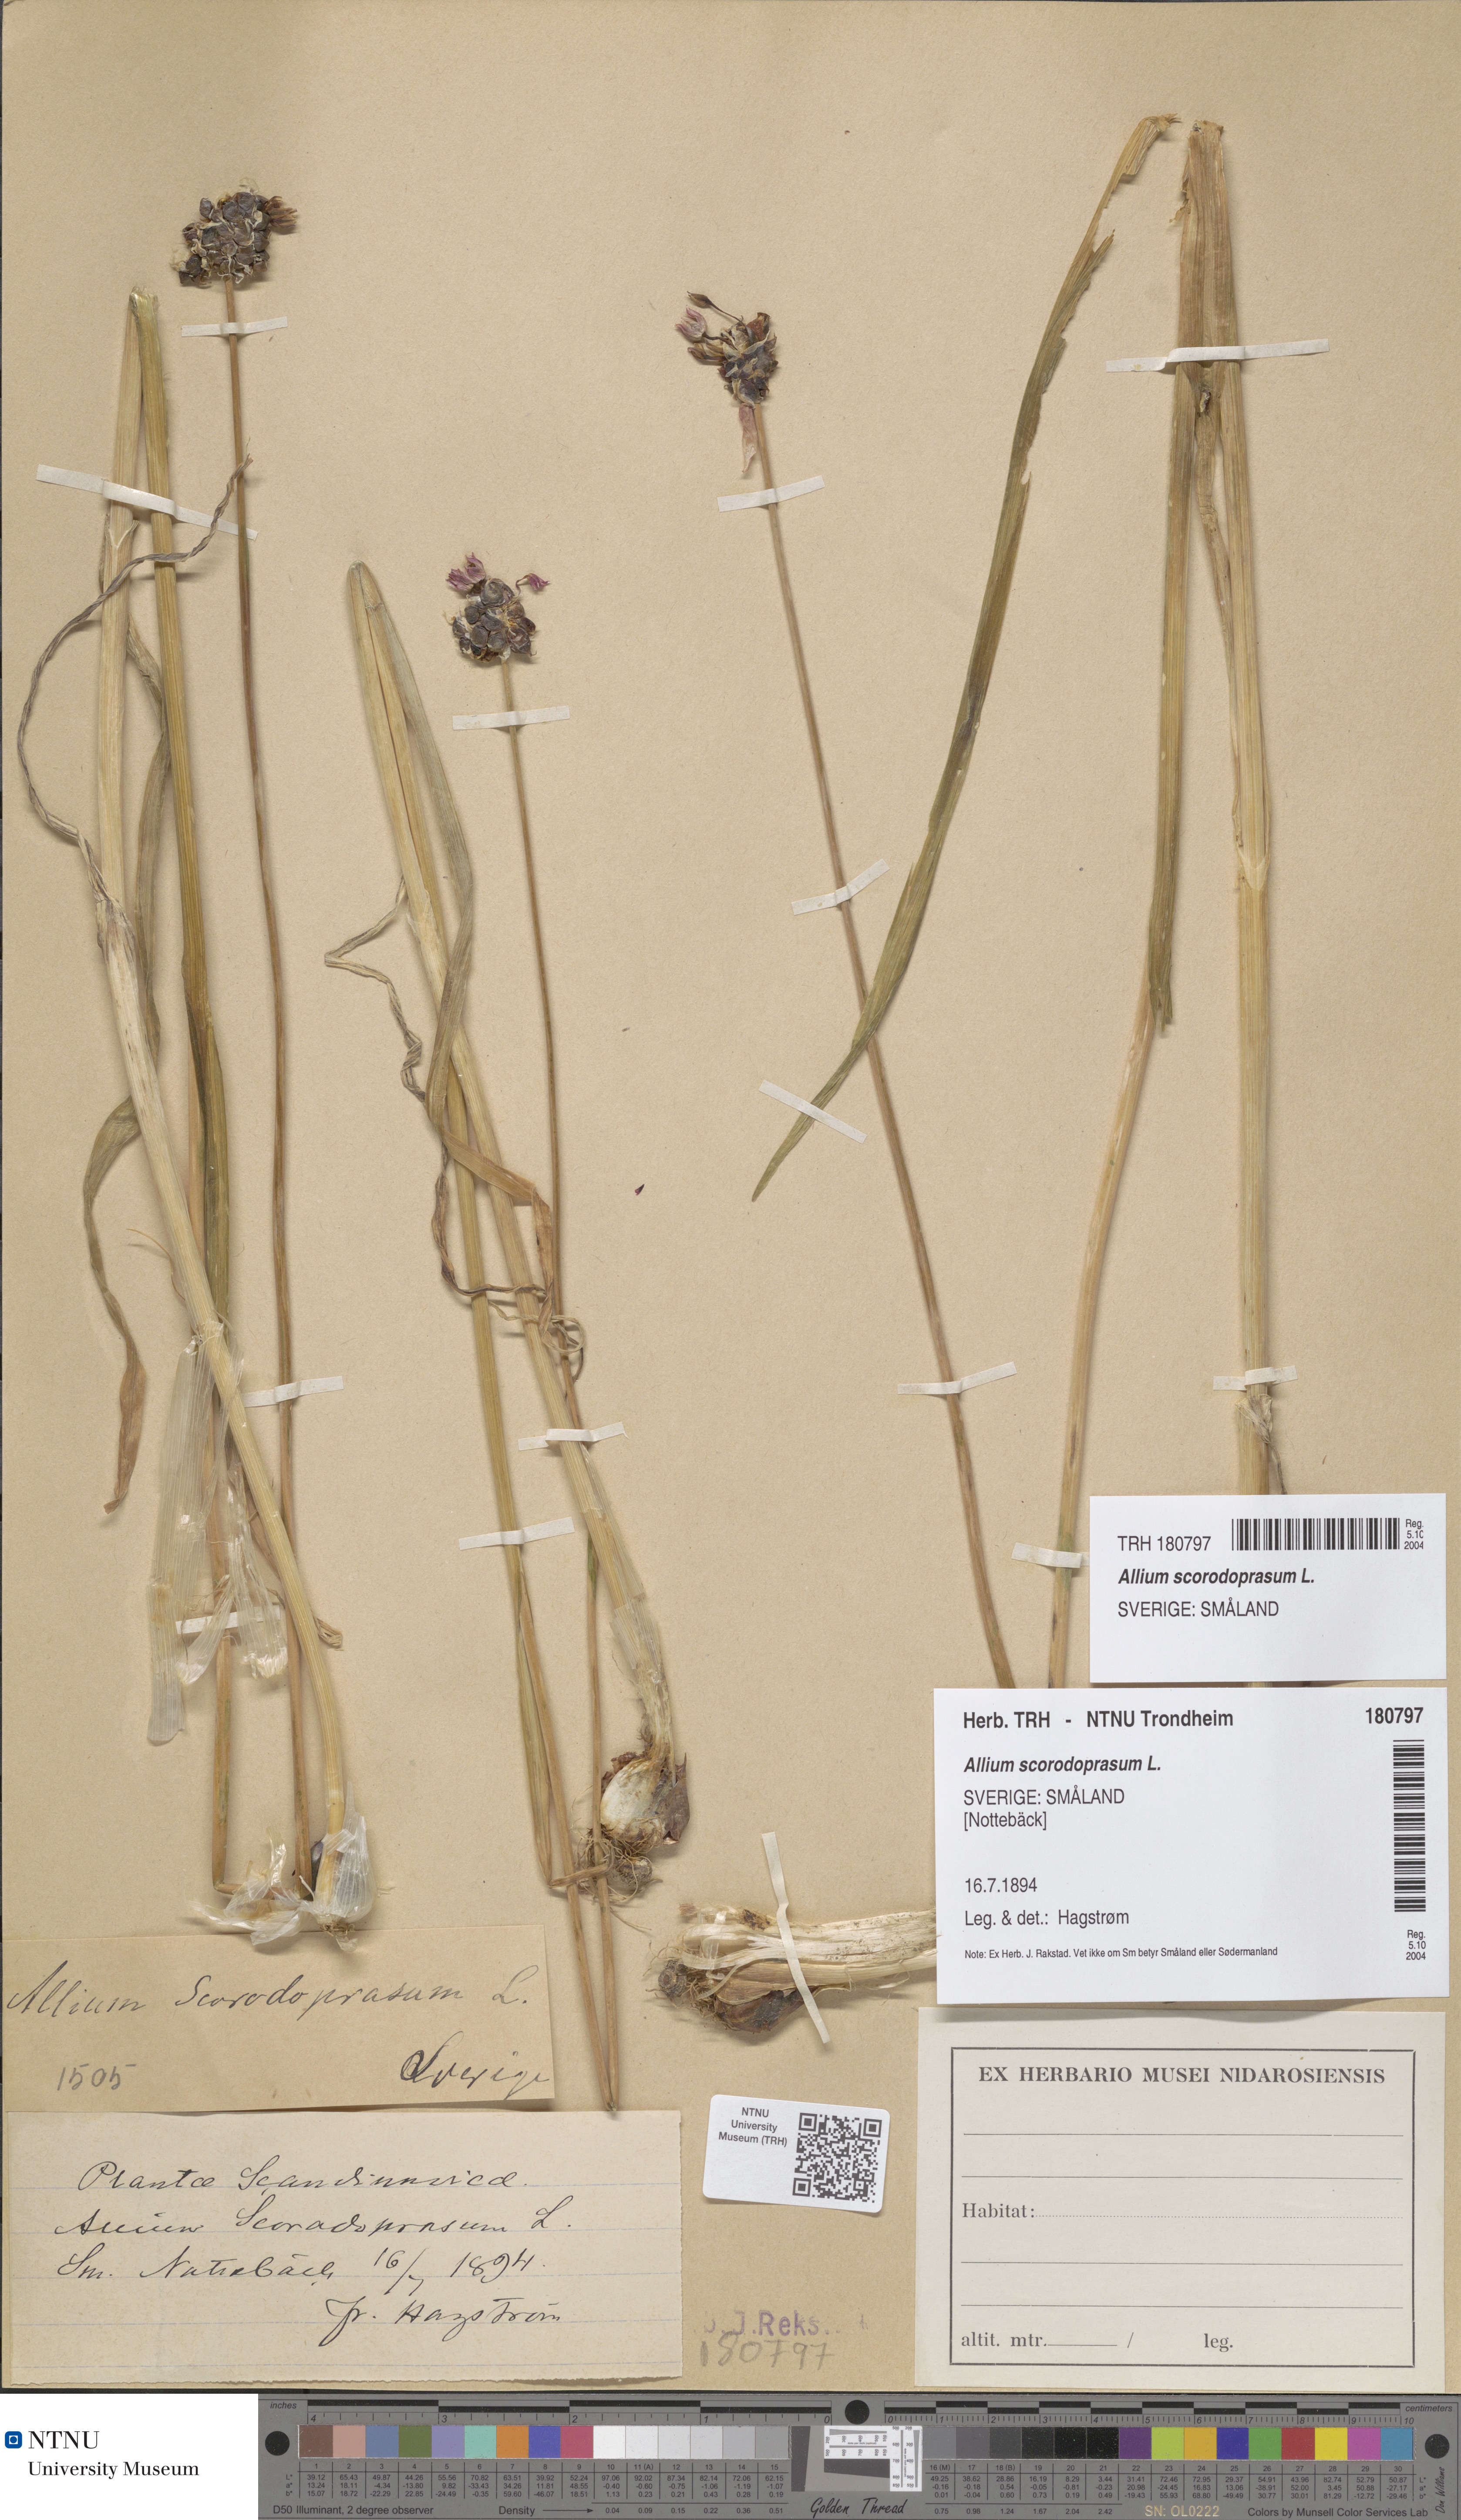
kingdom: Plantae
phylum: Tracheophyta
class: Liliopsida
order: Asparagales
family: Amaryllidaceae
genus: Allium
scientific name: Allium scorodoprasum
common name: Sand leek
